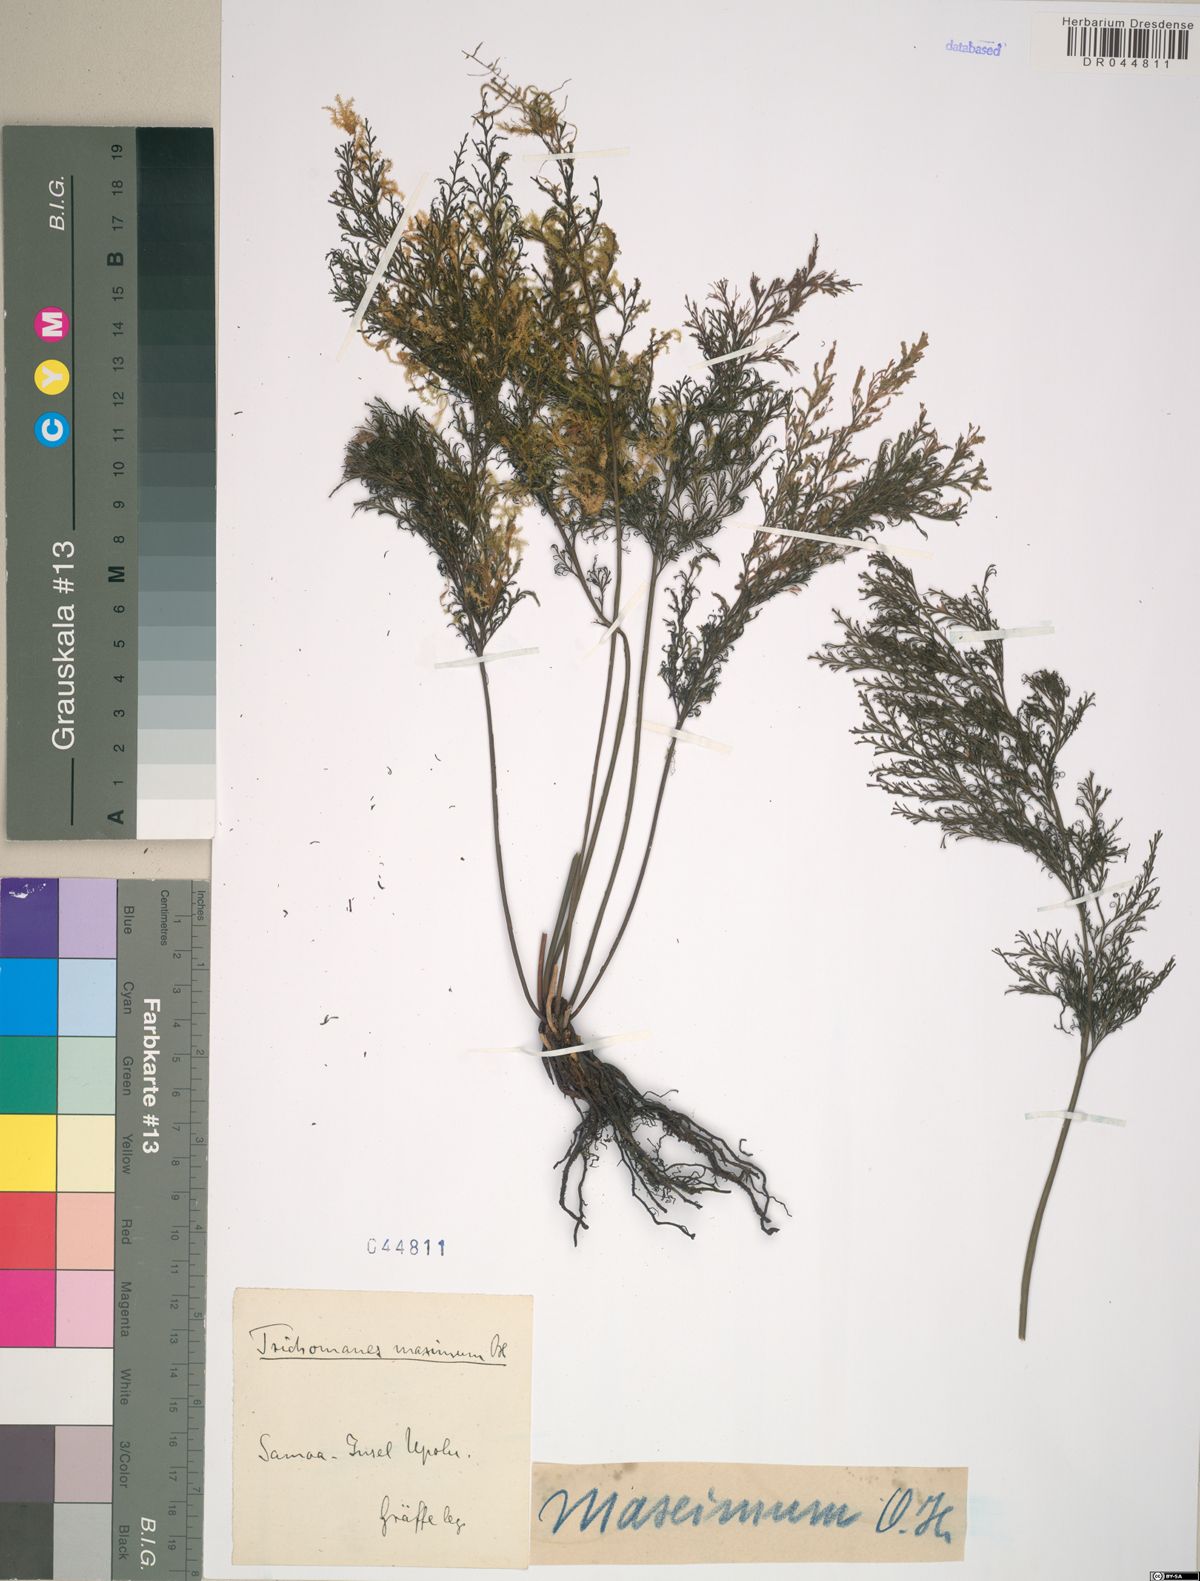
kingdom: Plantae
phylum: Tracheophyta
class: Polypodiopsida
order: Hymenophyllales
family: Hymenophyllaceae
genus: Trichomanes
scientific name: Trichomanes cristatum
